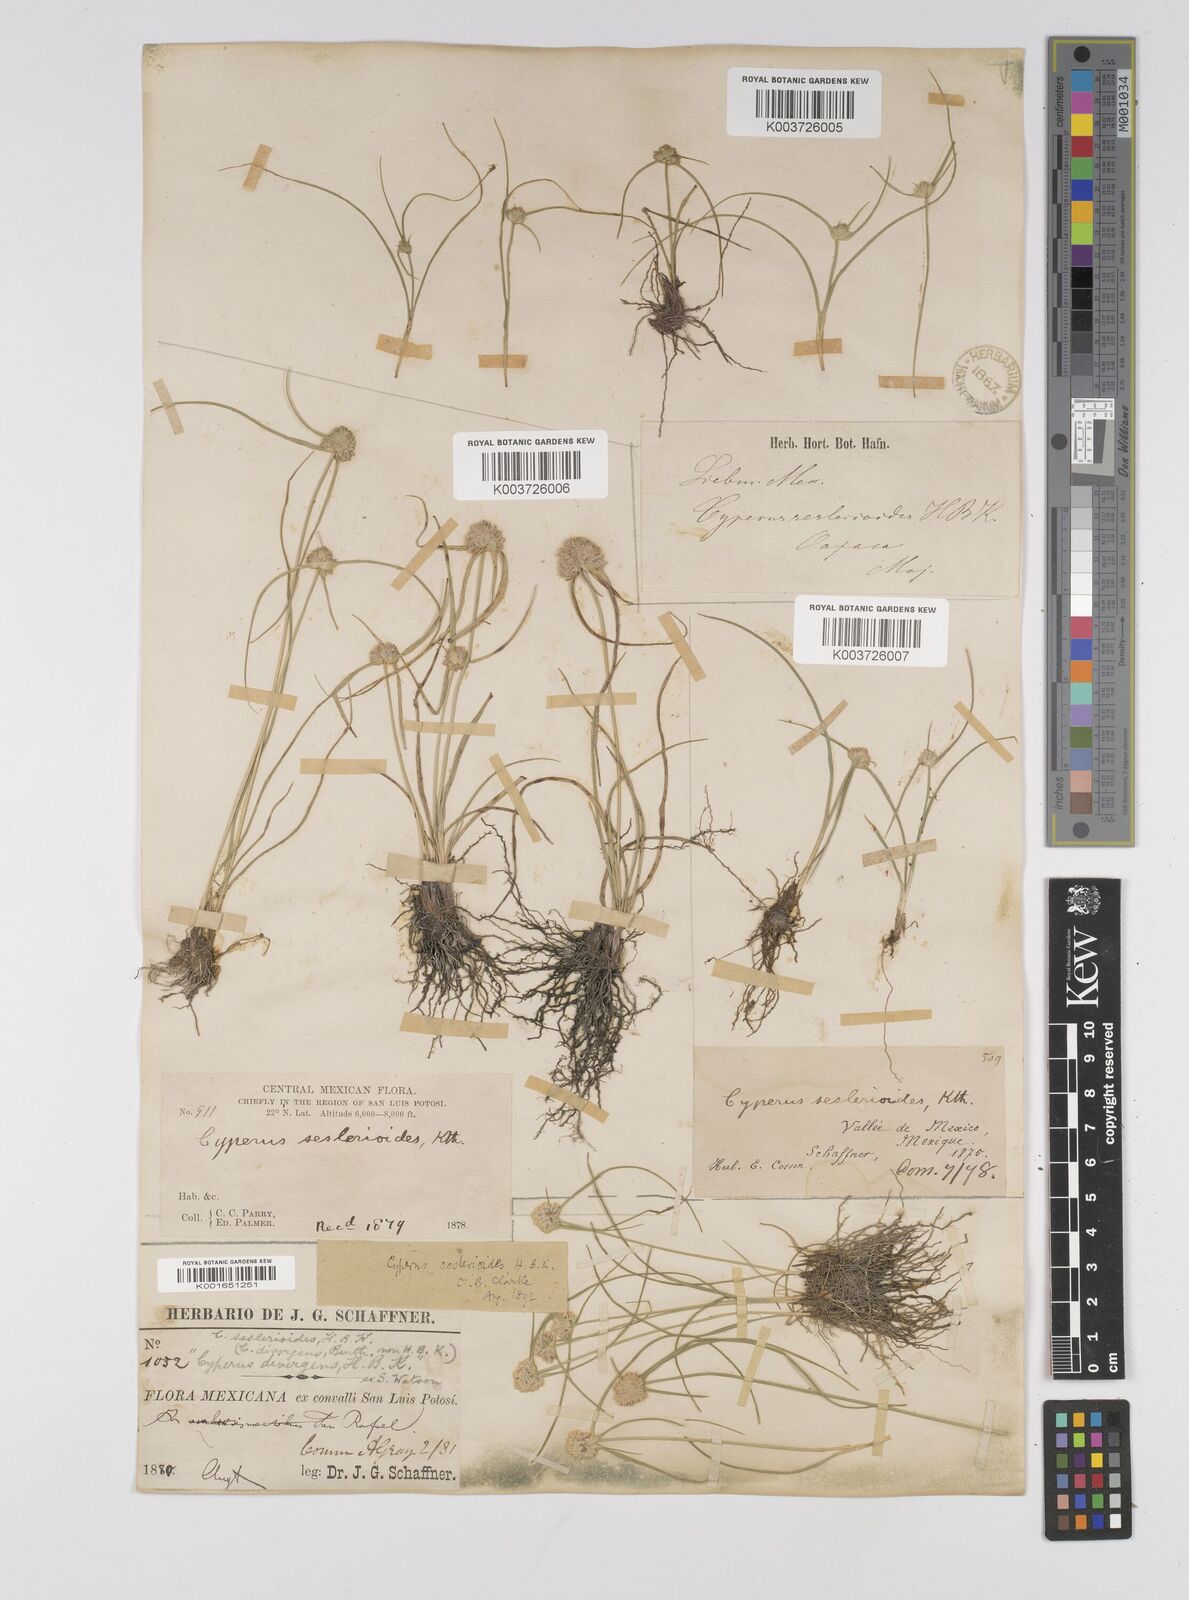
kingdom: Plantae
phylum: Tracheophyta
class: Liliopsida
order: Poales
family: Cyperaceae
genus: Cyperus
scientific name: Cyperus seslerioides
